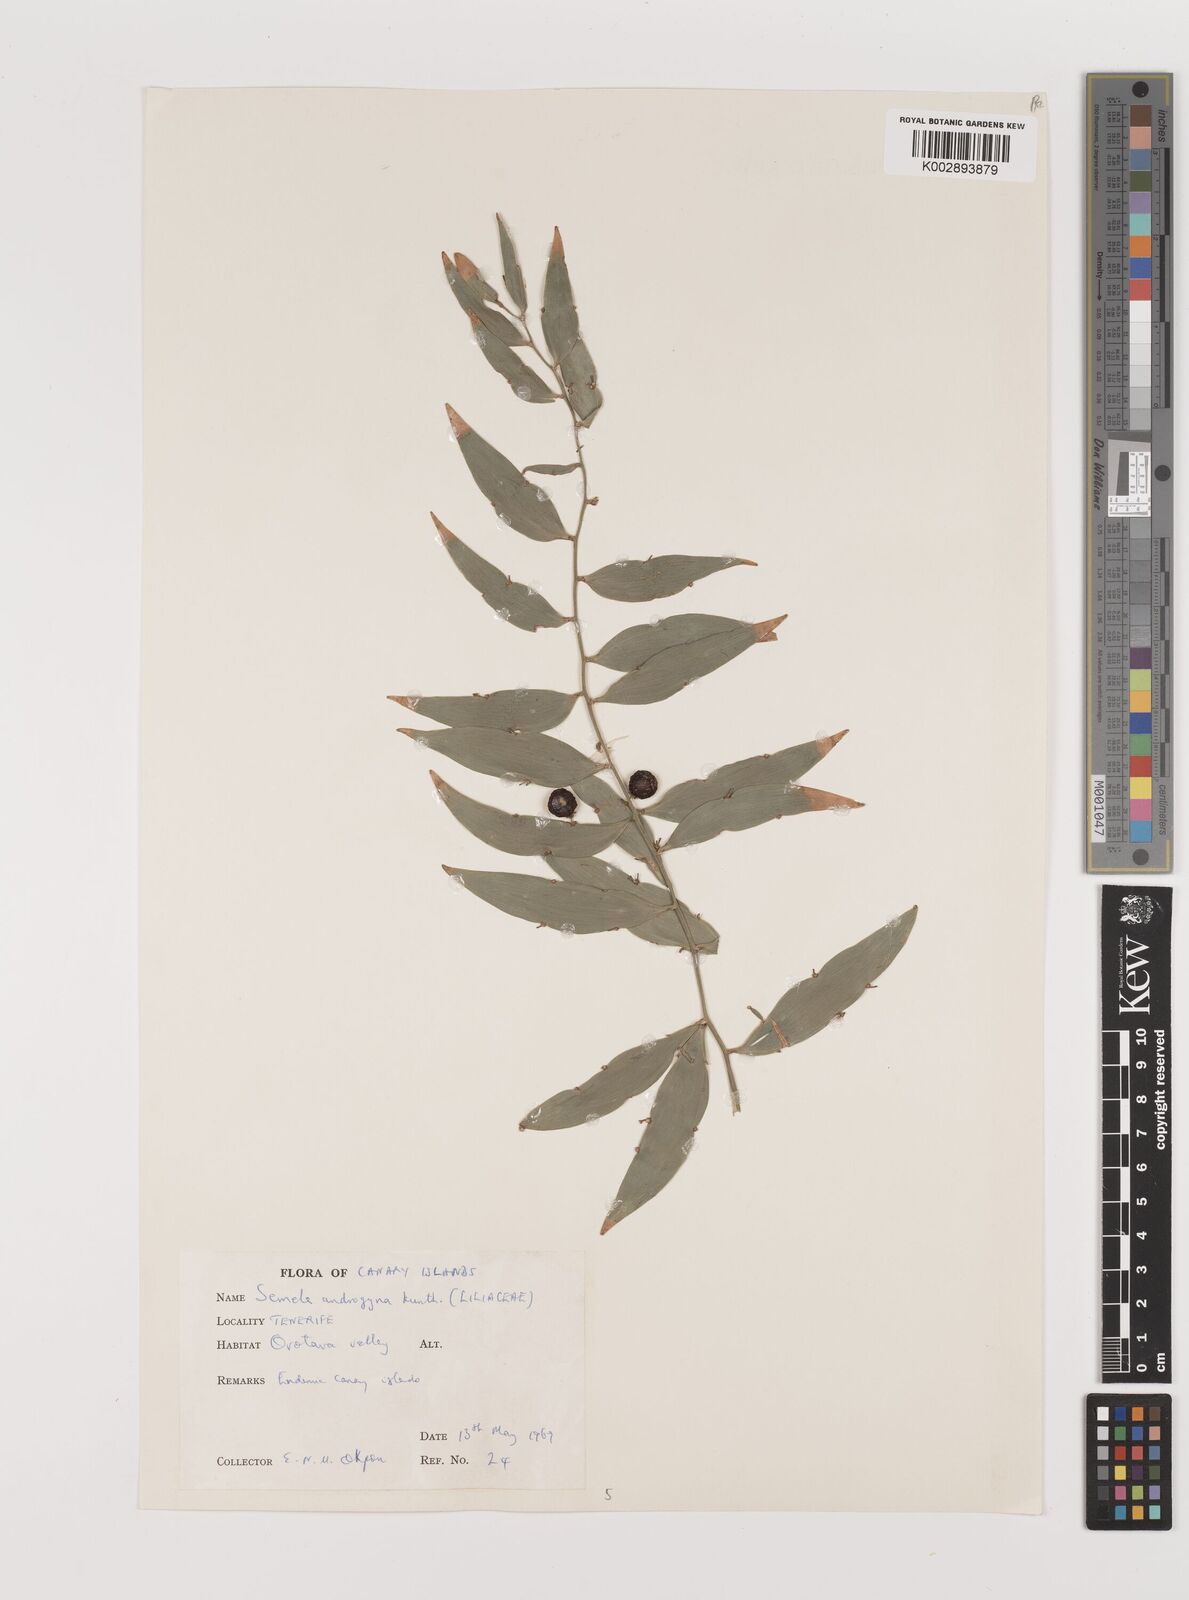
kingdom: Plantae
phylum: Tracheophyta
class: Liliopsida
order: Asparagales
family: Asparagaceae
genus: Semele
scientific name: Semele androgyna
